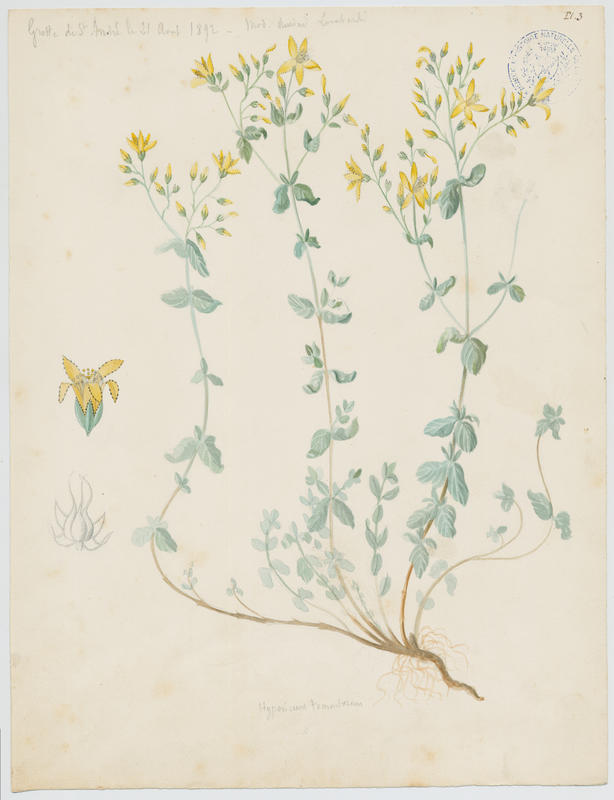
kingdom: Plantae
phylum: Tracheophyta
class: Magnoliopsida
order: Malpighiales
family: Hypericaceae
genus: Hypericum
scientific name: Hypericum tomentosum
